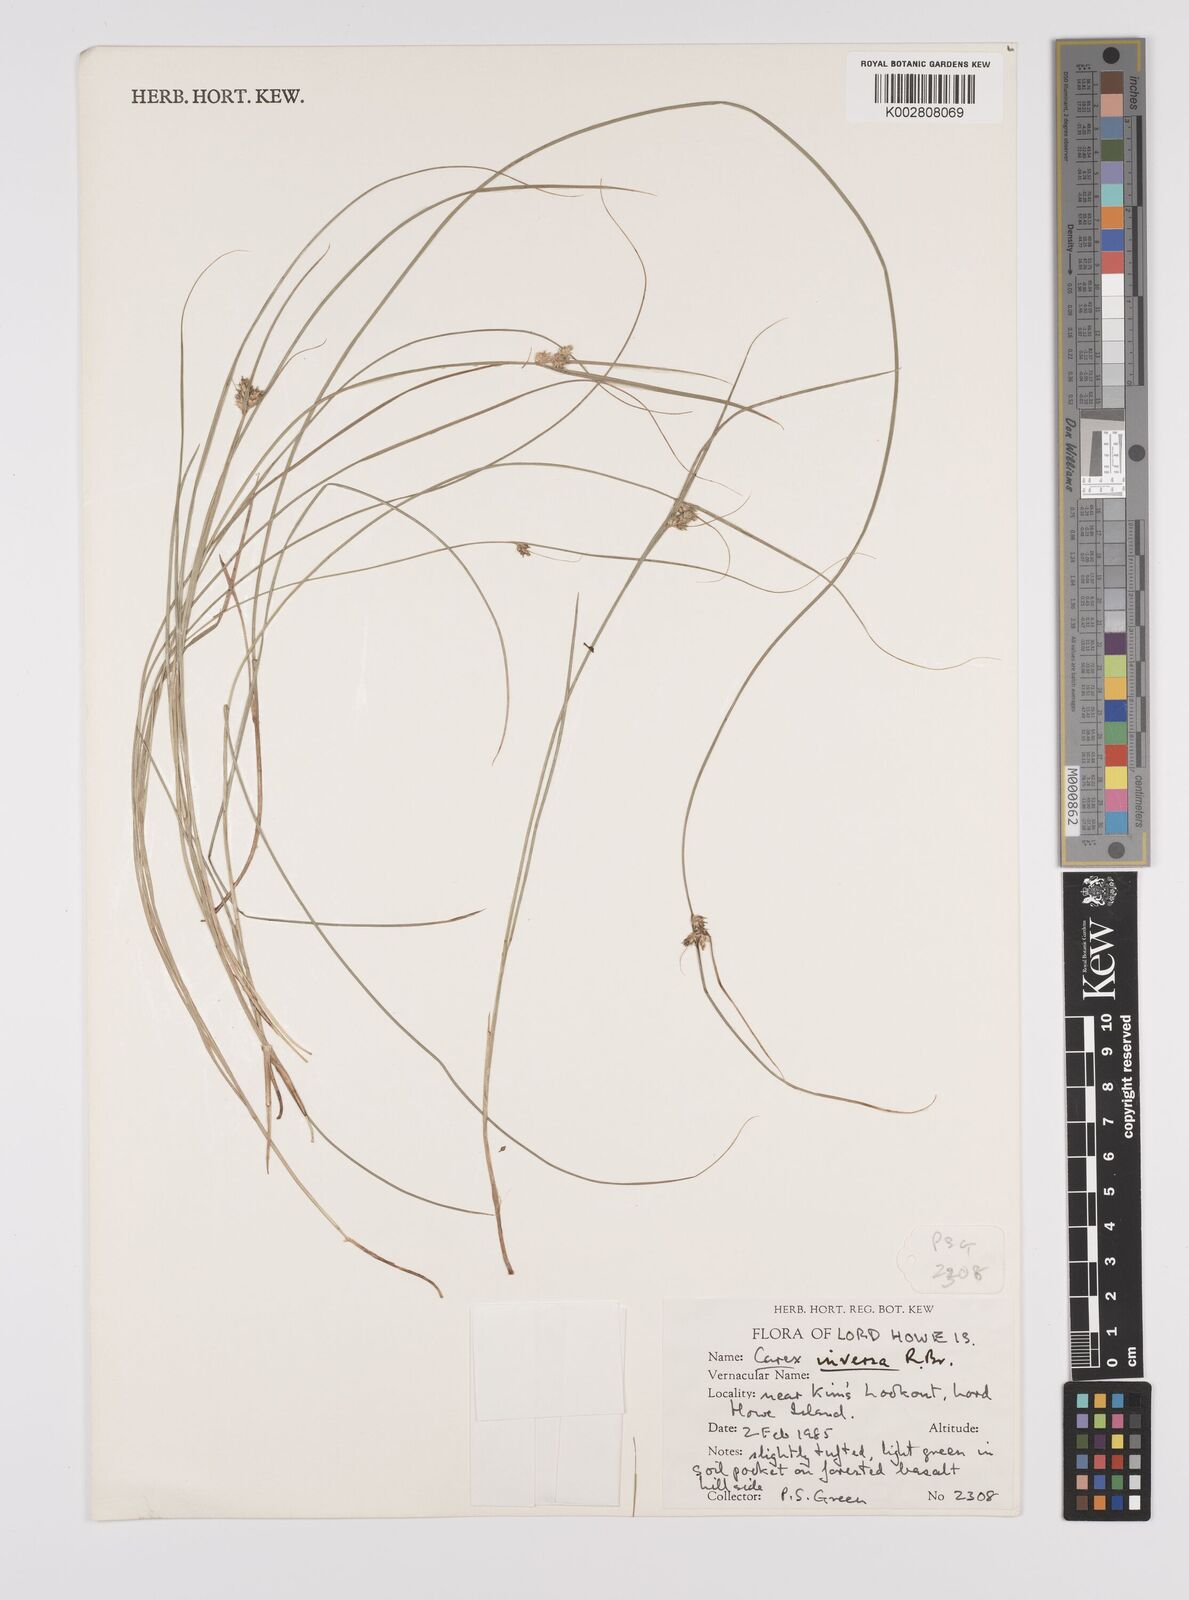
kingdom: Plantae
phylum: Tracheophyta
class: Liliopsida
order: Poales
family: Cyperaceae
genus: Carex
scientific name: Carex inversa
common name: Knob sedge
